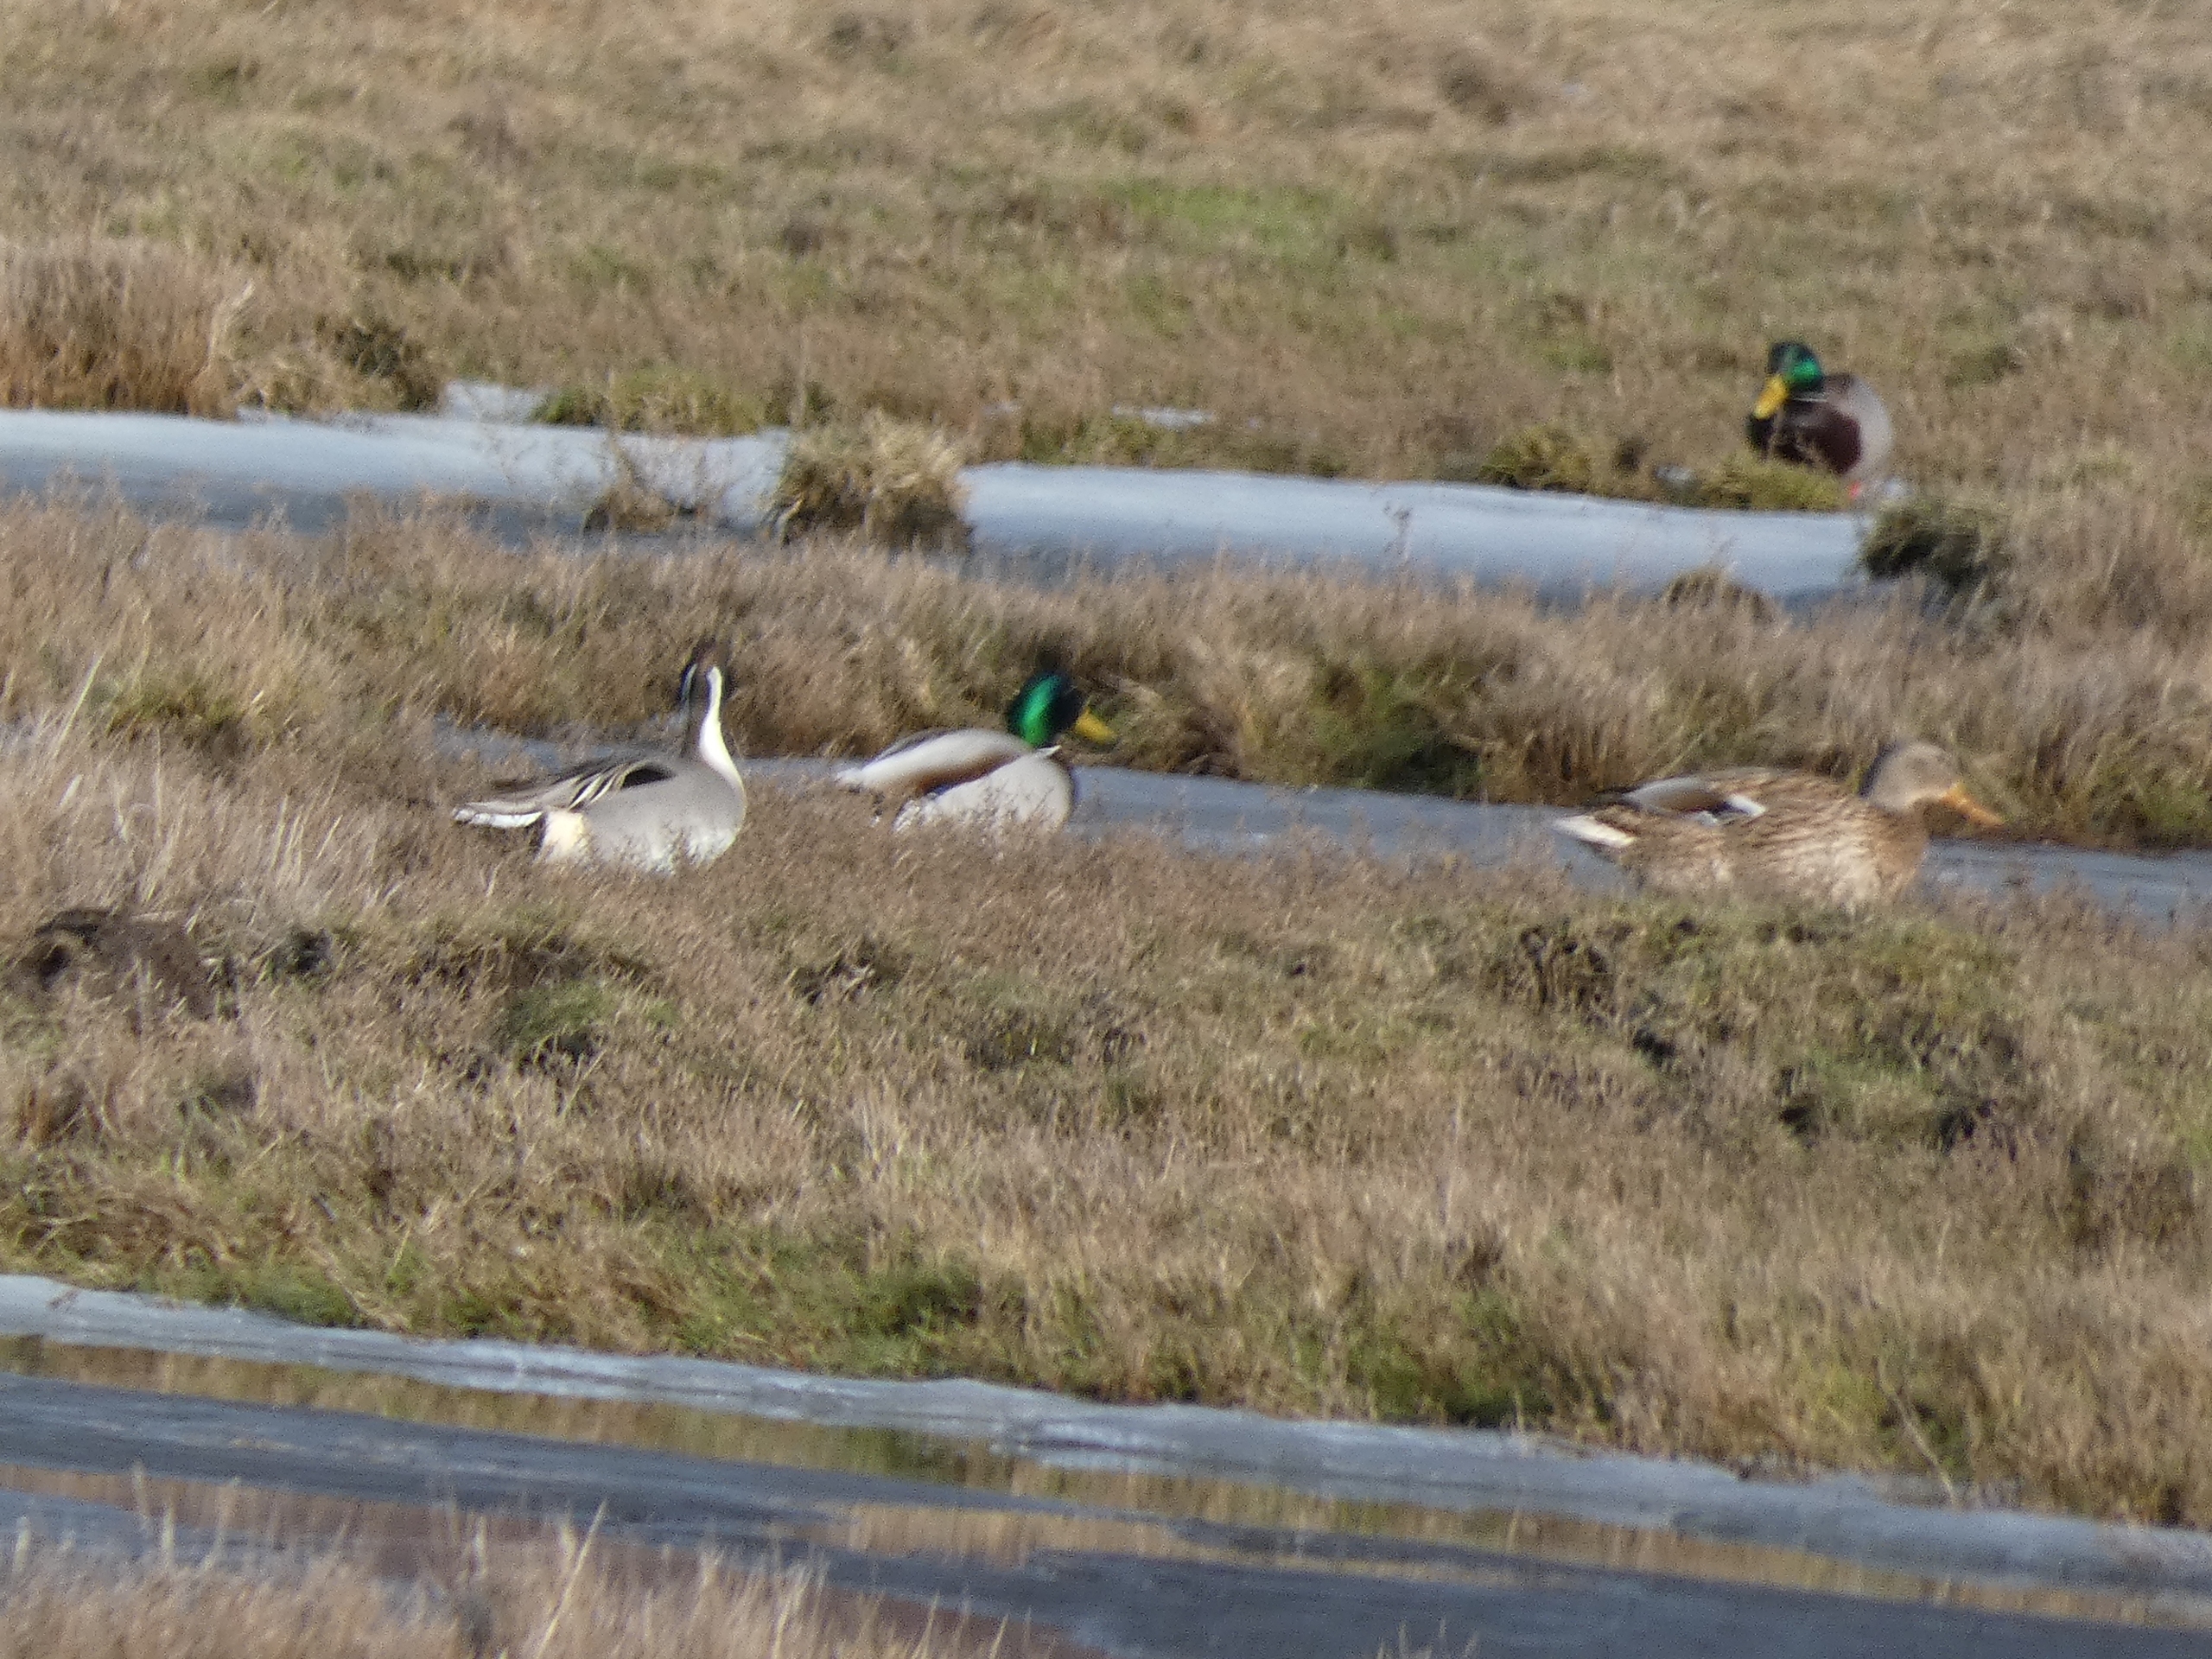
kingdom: Animalia
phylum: Chordata
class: Aves
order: Anseriformes
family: Anatidae
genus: Anas
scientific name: Anas platyrhynchos
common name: Gråand
